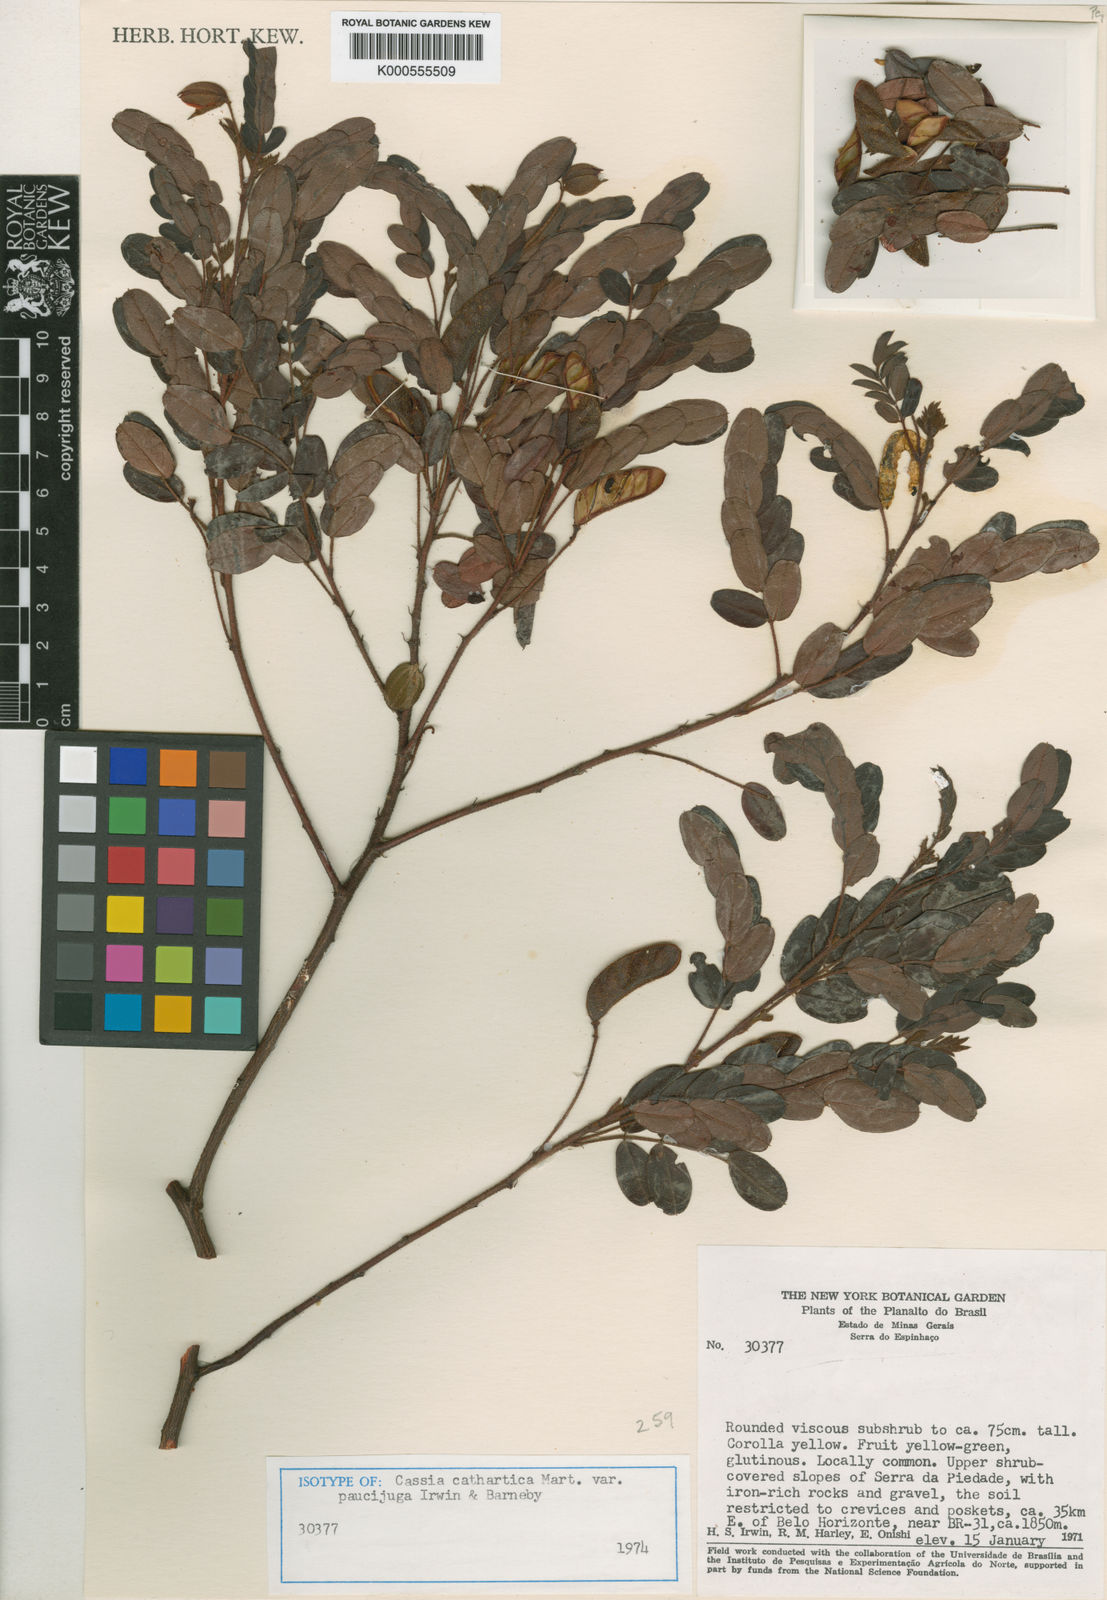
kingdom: Plantae
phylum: Tracheophyta
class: Magnoliopsida
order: Fabales
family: Fabaceae
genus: Chamaecrista
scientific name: Chamaecrista cathartica
